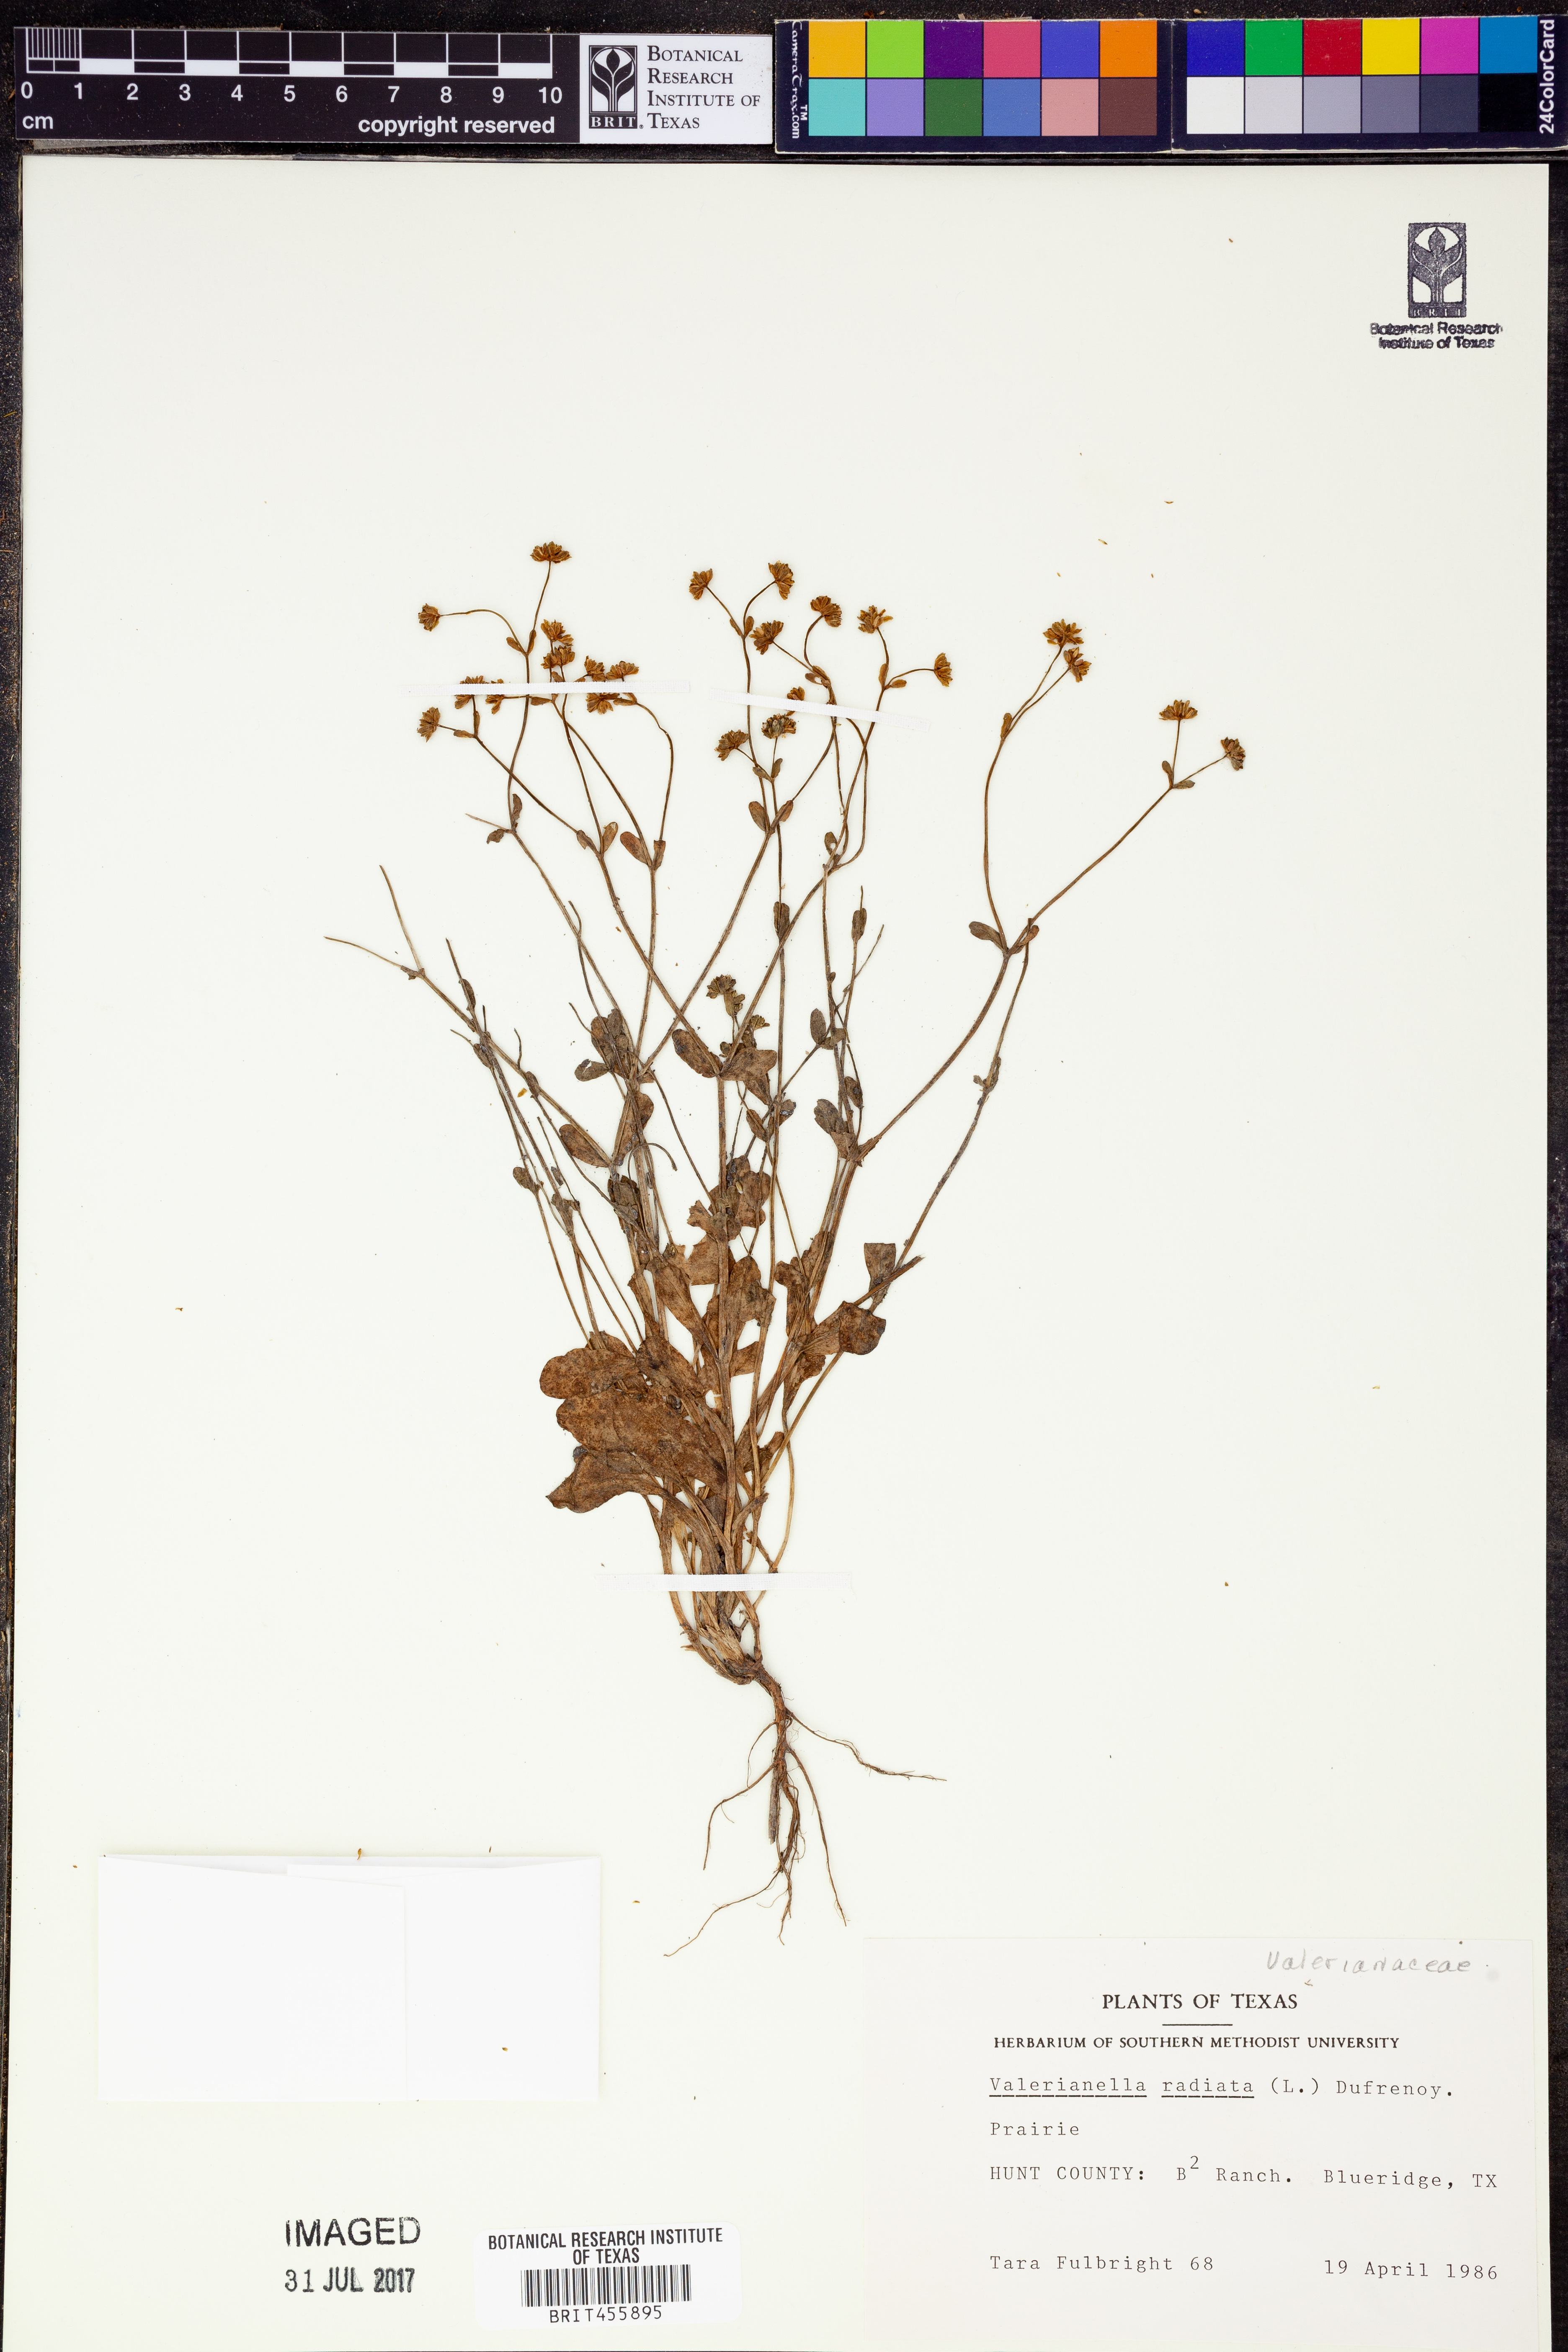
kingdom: Plantae
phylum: Tracheophyta
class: Magnoliopsida
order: Dipsacales
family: Caprifoliaceae
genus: Valerianella
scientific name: Valerianella radiata
